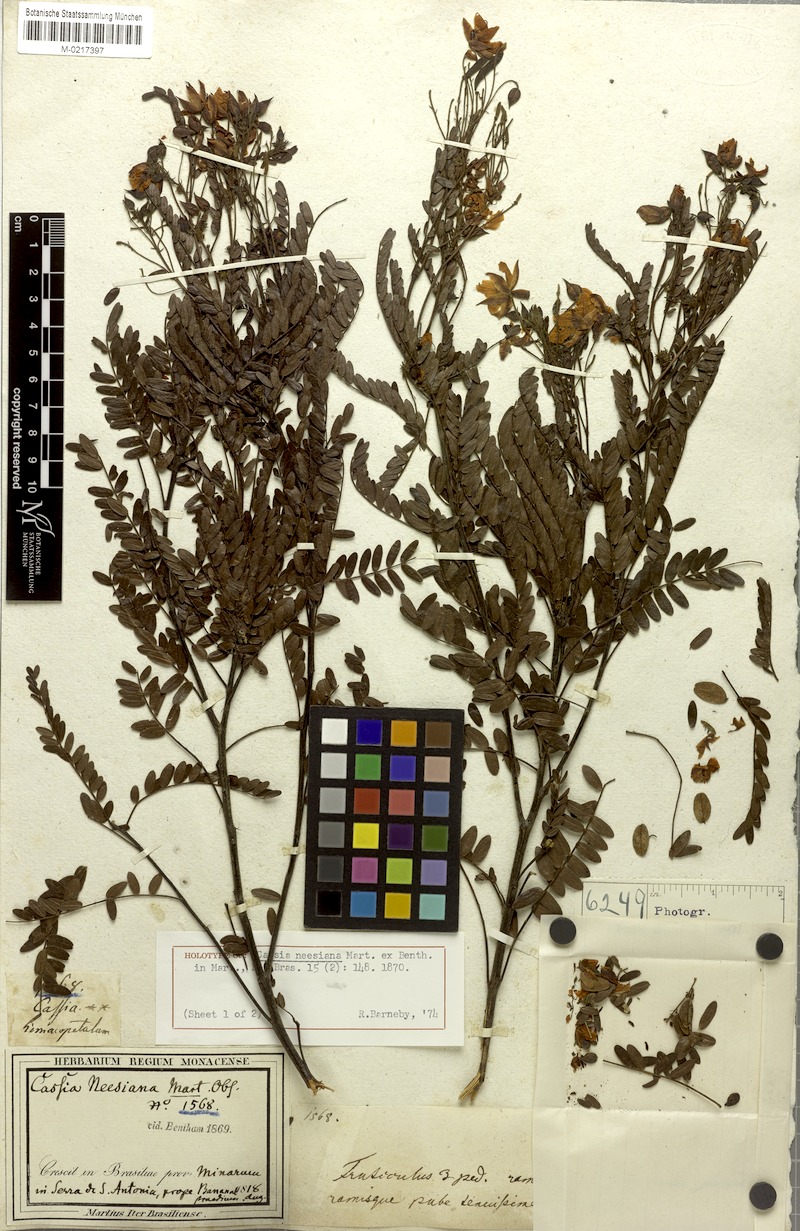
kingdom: Plantae
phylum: Tracheophyta
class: Magnoliopsida
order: Fabales
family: Fabaceae
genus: Chamaecrista
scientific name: Chamaecrista neesiana
